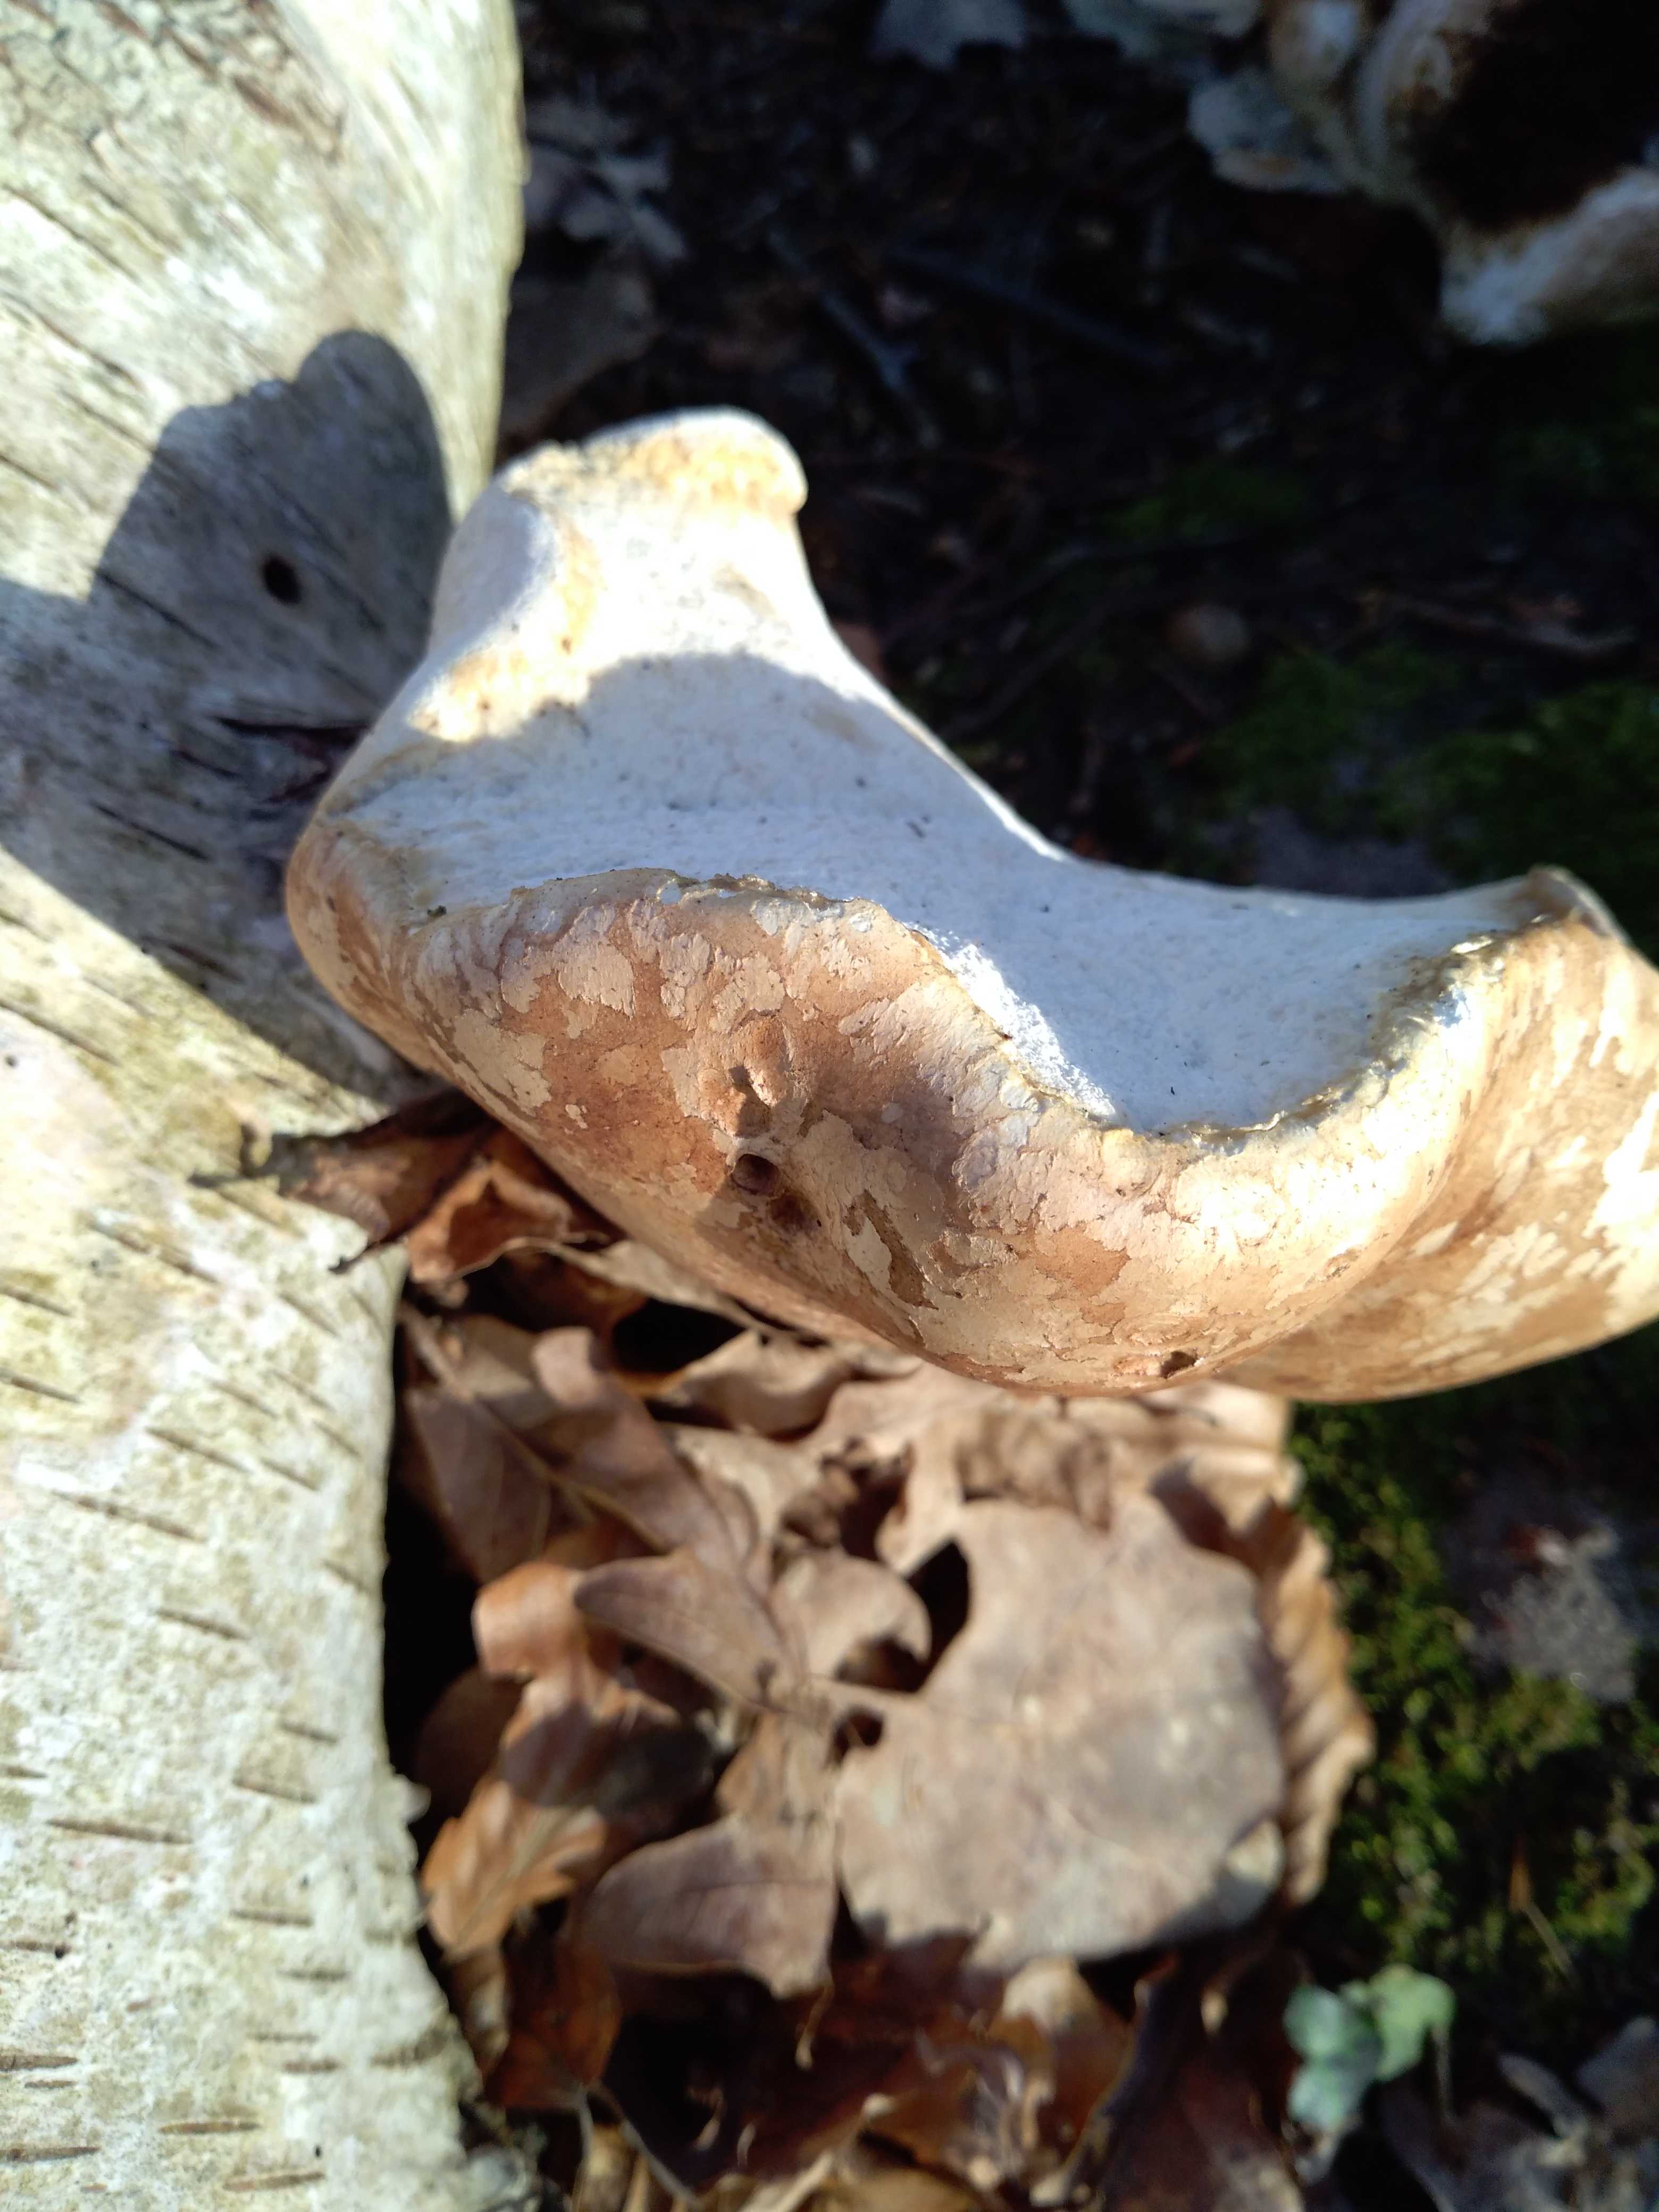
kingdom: Fungi
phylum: Basidiomycota
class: Agaricomycetes
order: Polyporales
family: Fomitopsidaceae
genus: Fomitopsis
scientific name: Fomitopsis betulina
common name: birkeporesvamp
